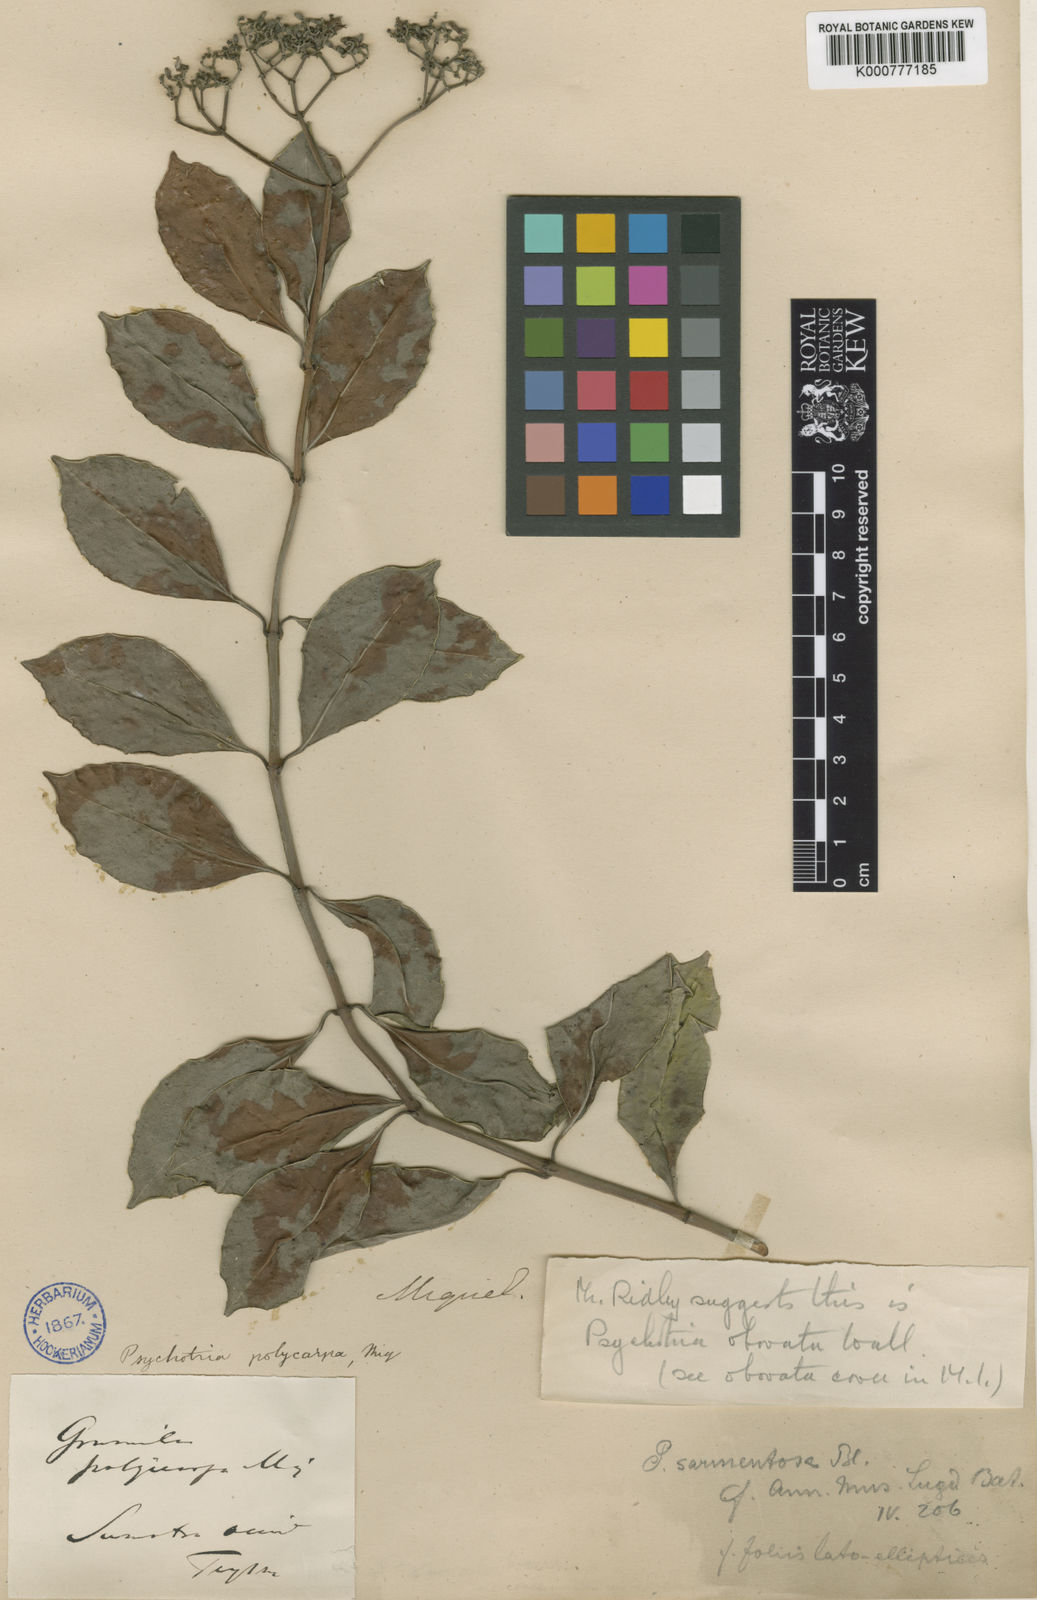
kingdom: Plantae
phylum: Tracheophyta
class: Magnoliopsida
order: Gentianales
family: Rubiaceae
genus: Psychotria
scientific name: Psychotria sarmentosa
